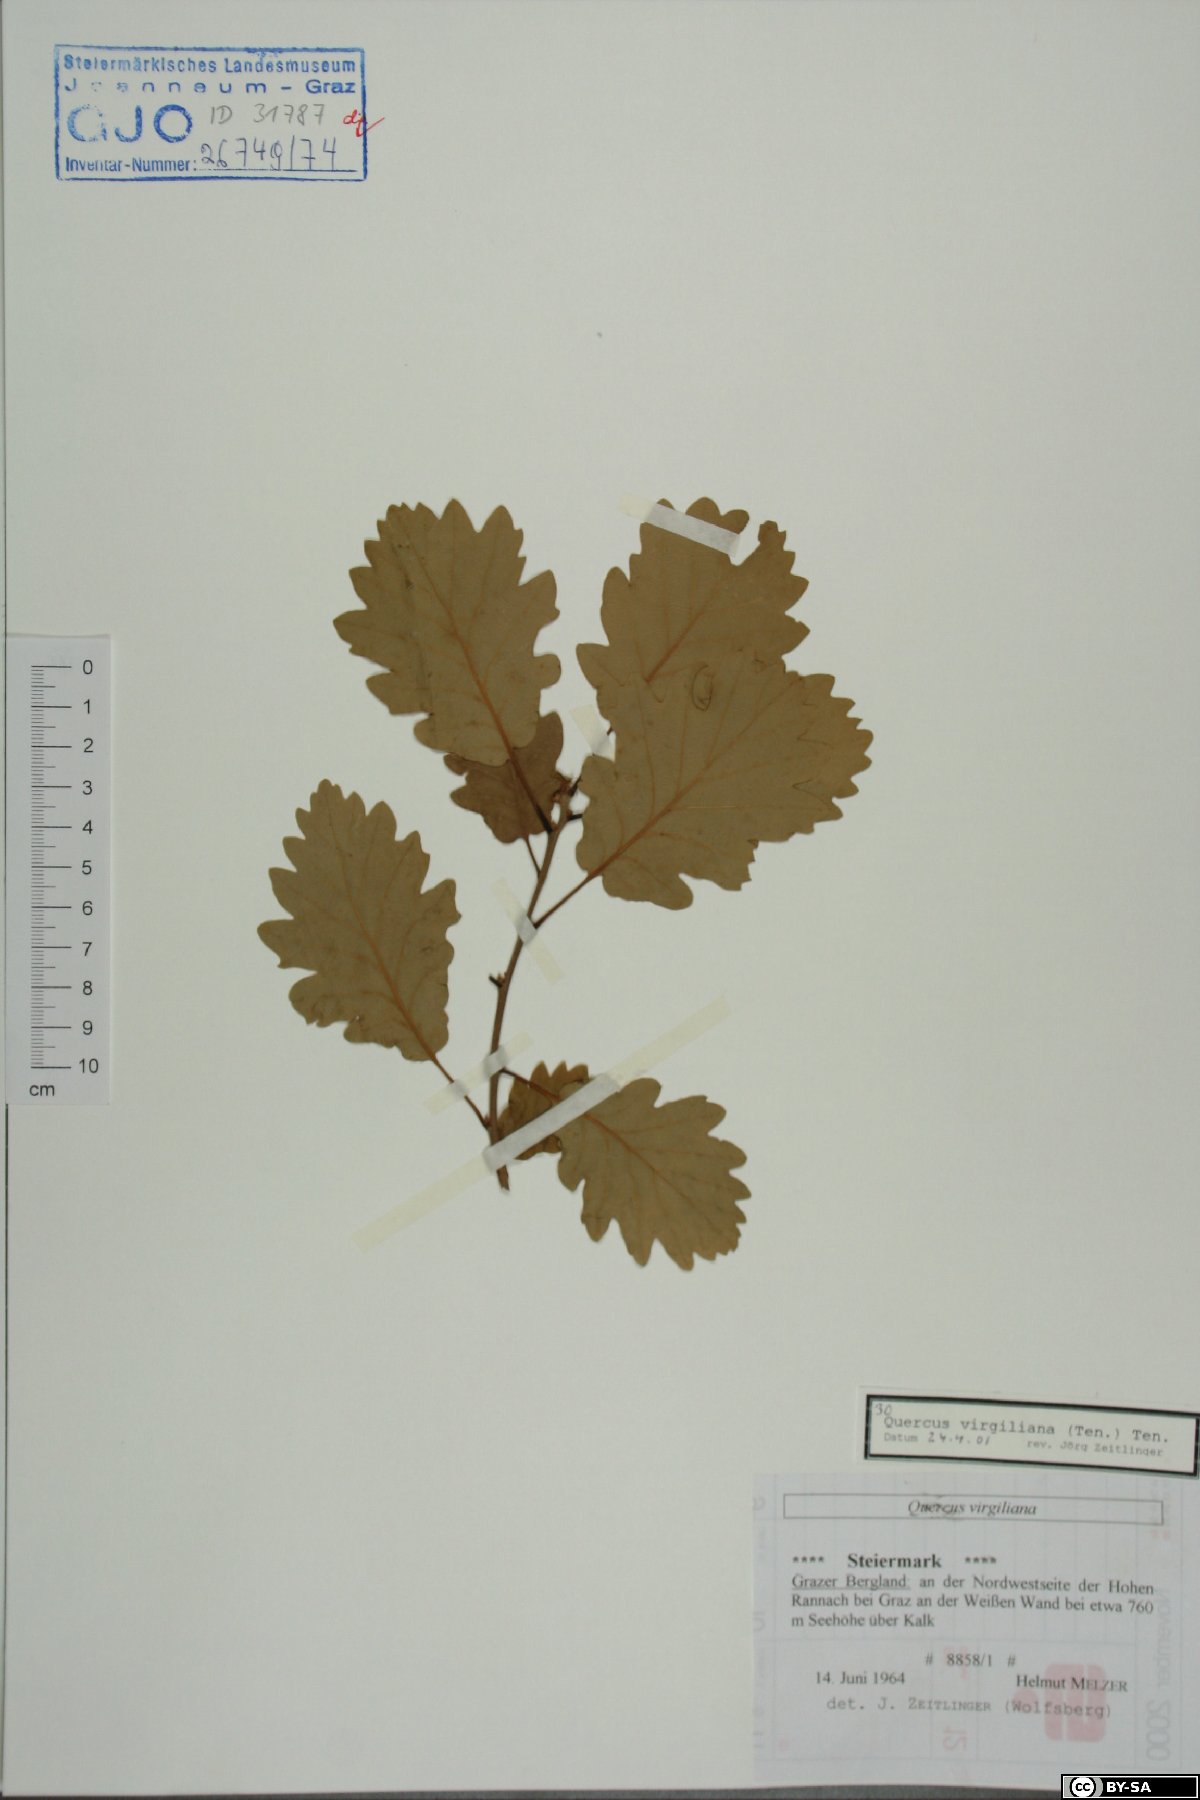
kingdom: Plantae
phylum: Tracheophyta
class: Magnoliopsida
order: Fagales
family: Fagaceae
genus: Quercus
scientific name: Quercus pubescens
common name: Downy oak
